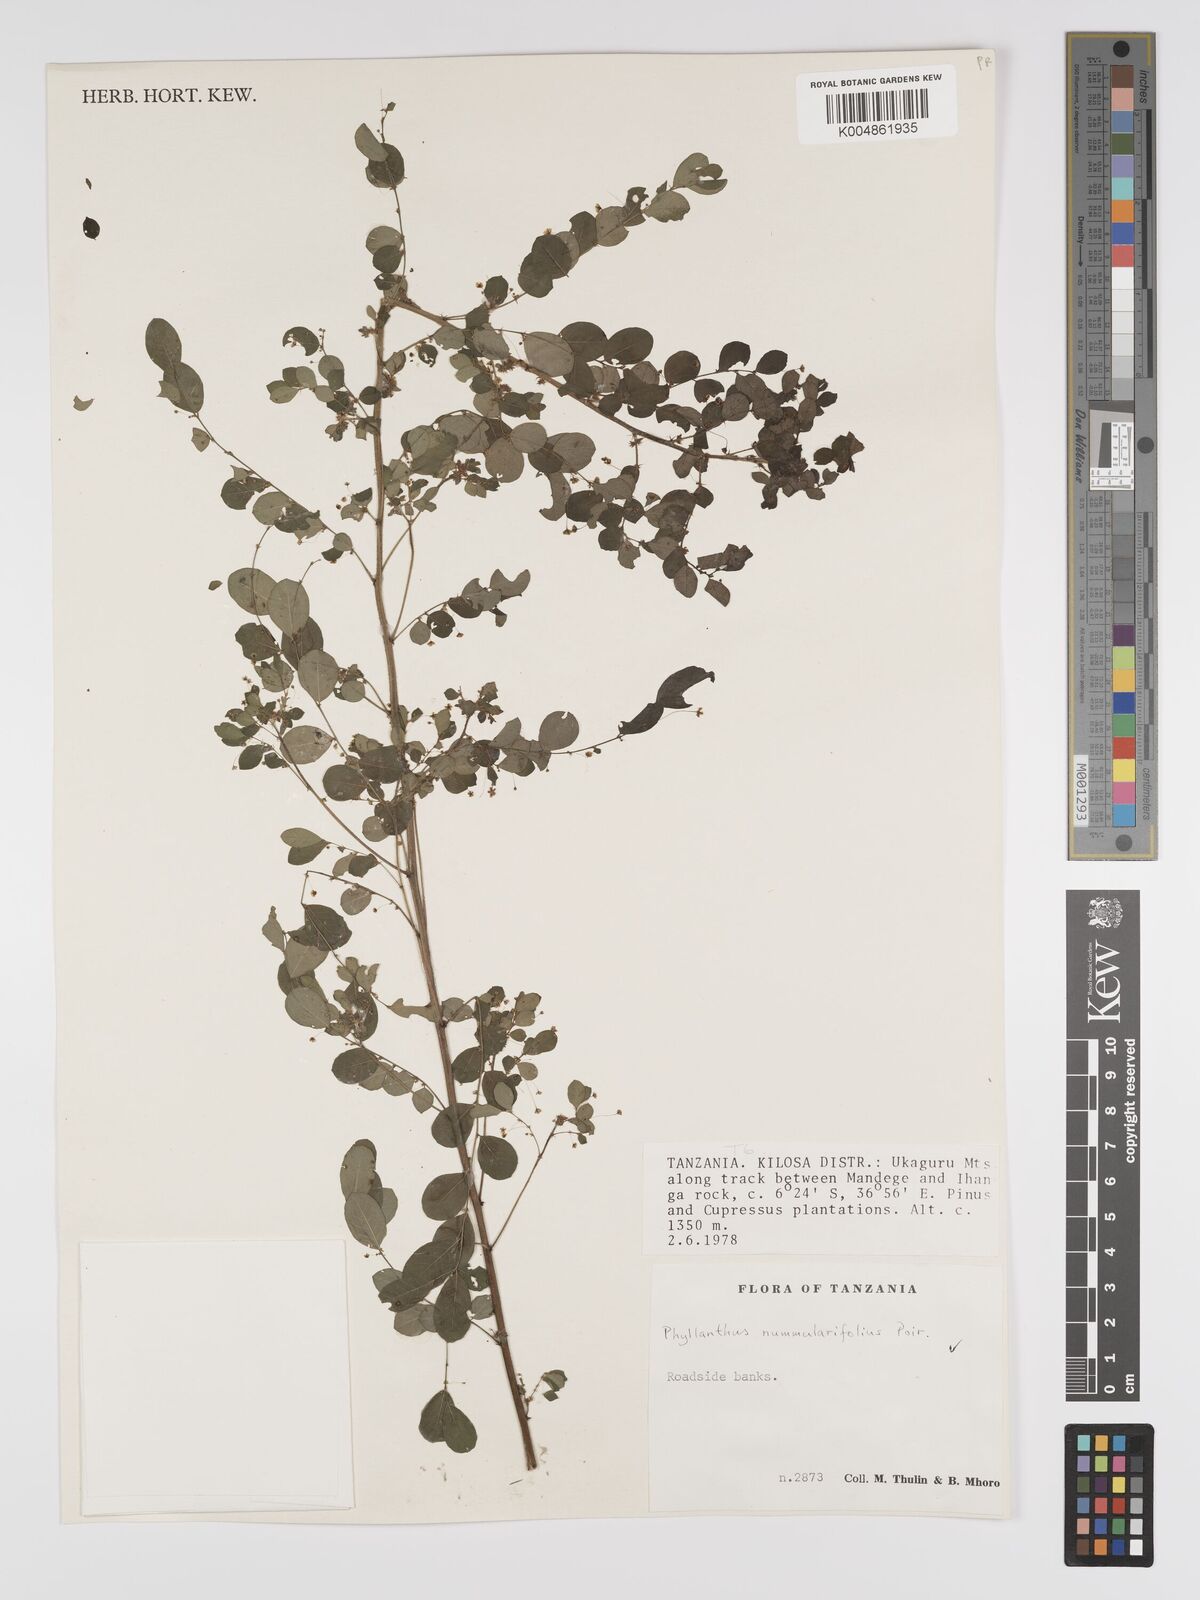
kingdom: Plantae
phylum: Tracheophyta
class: Magnoliopsida
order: Malpighiales
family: Phyllanthaceae
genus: Phyllanthus
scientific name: Phyllanthus nummulariifolius
